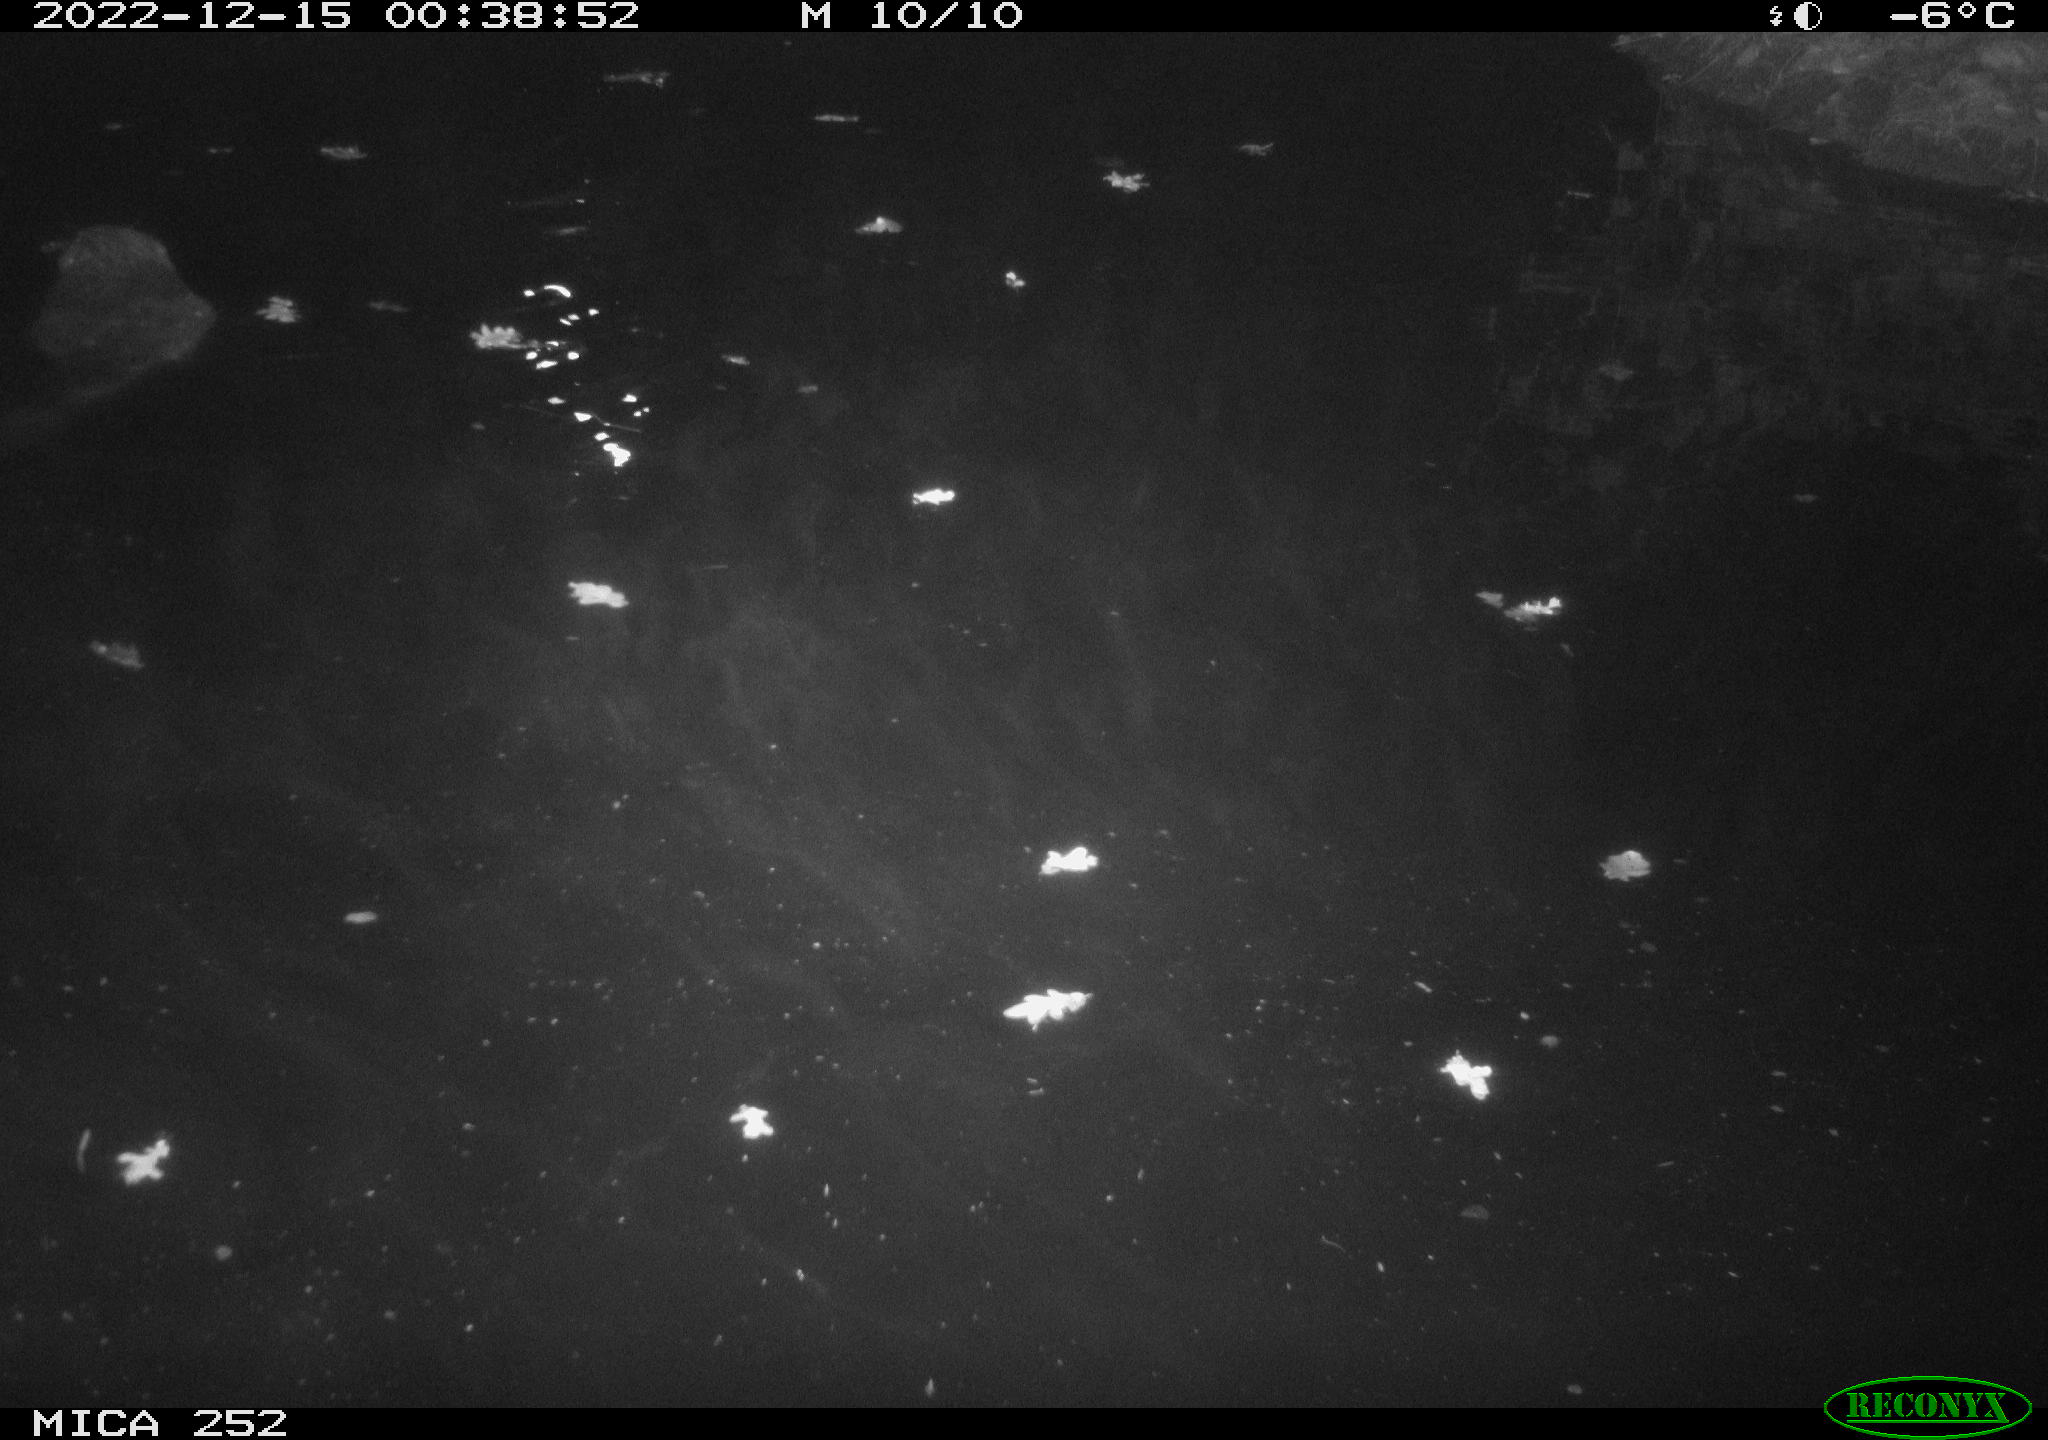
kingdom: Animalia
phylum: Chordata
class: Mammalia
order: Rodentia
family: Castoridae
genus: Castor
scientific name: Castor fiber
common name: Eurasian beaver
